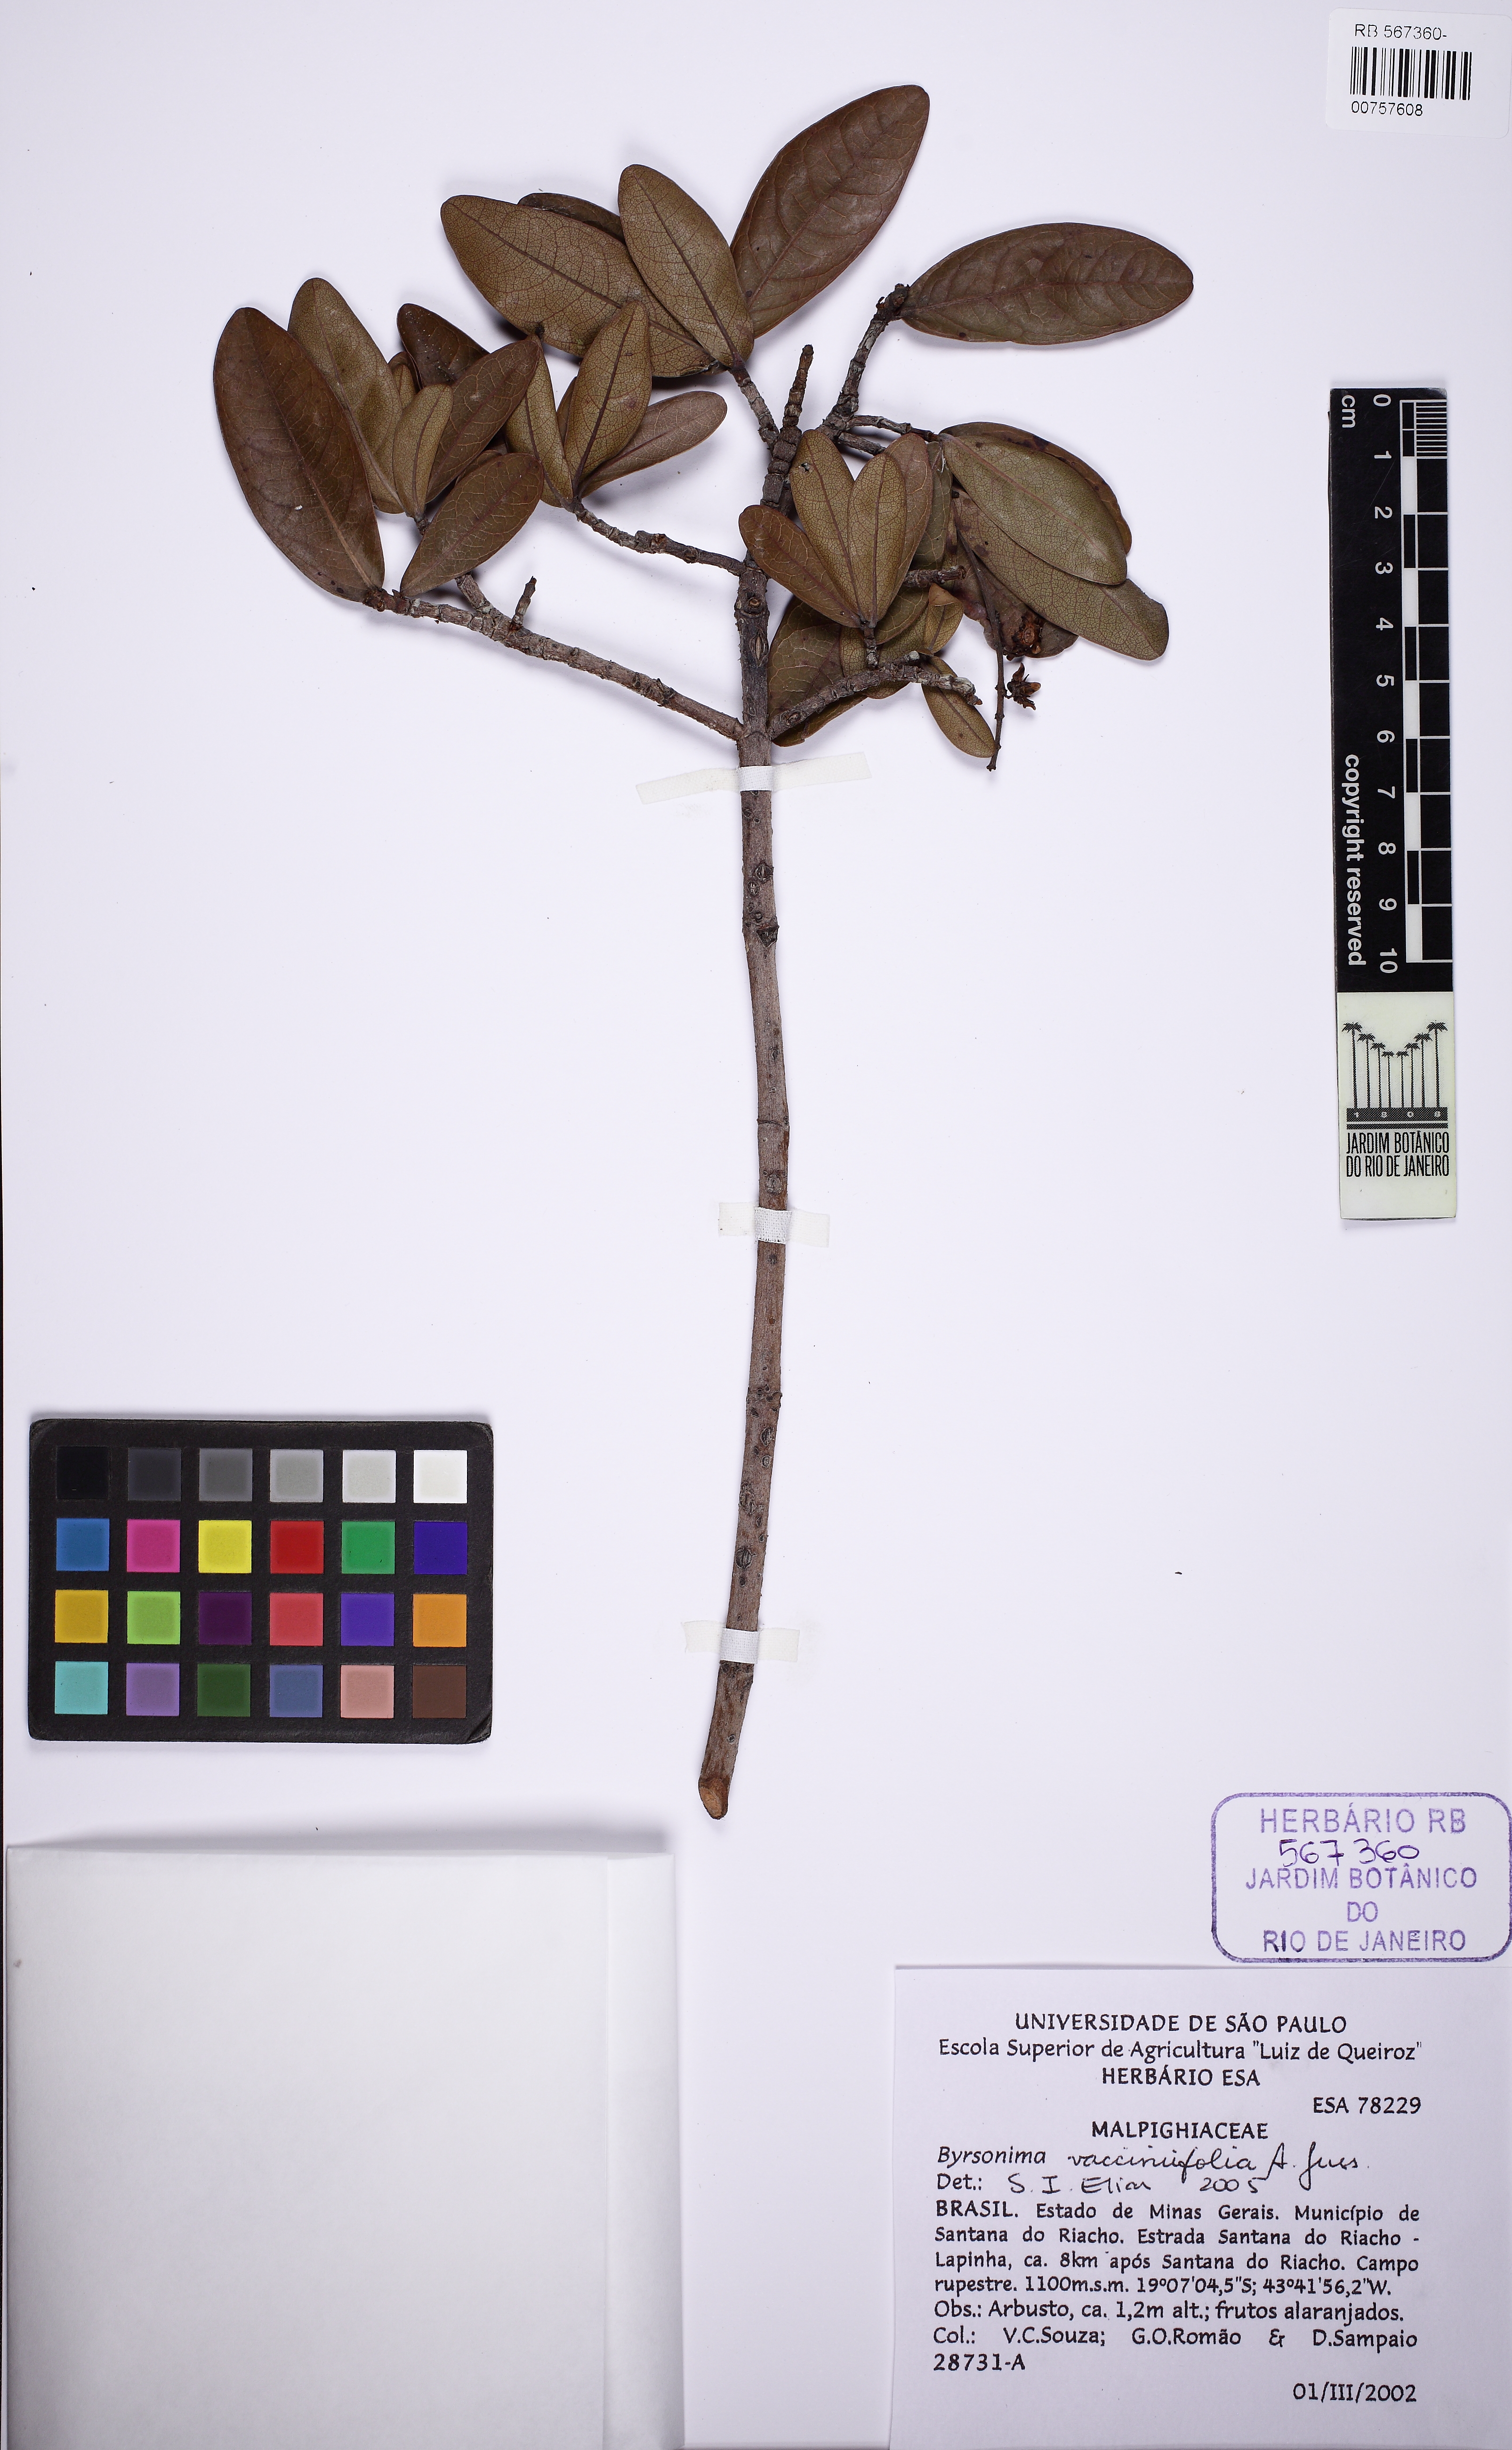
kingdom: Plantae
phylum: Tracheophyta
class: Magnoliopsida
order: Malpighiales
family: Malpighiaceae
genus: Byrsonima
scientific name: Byrsonima vacciniifolia
